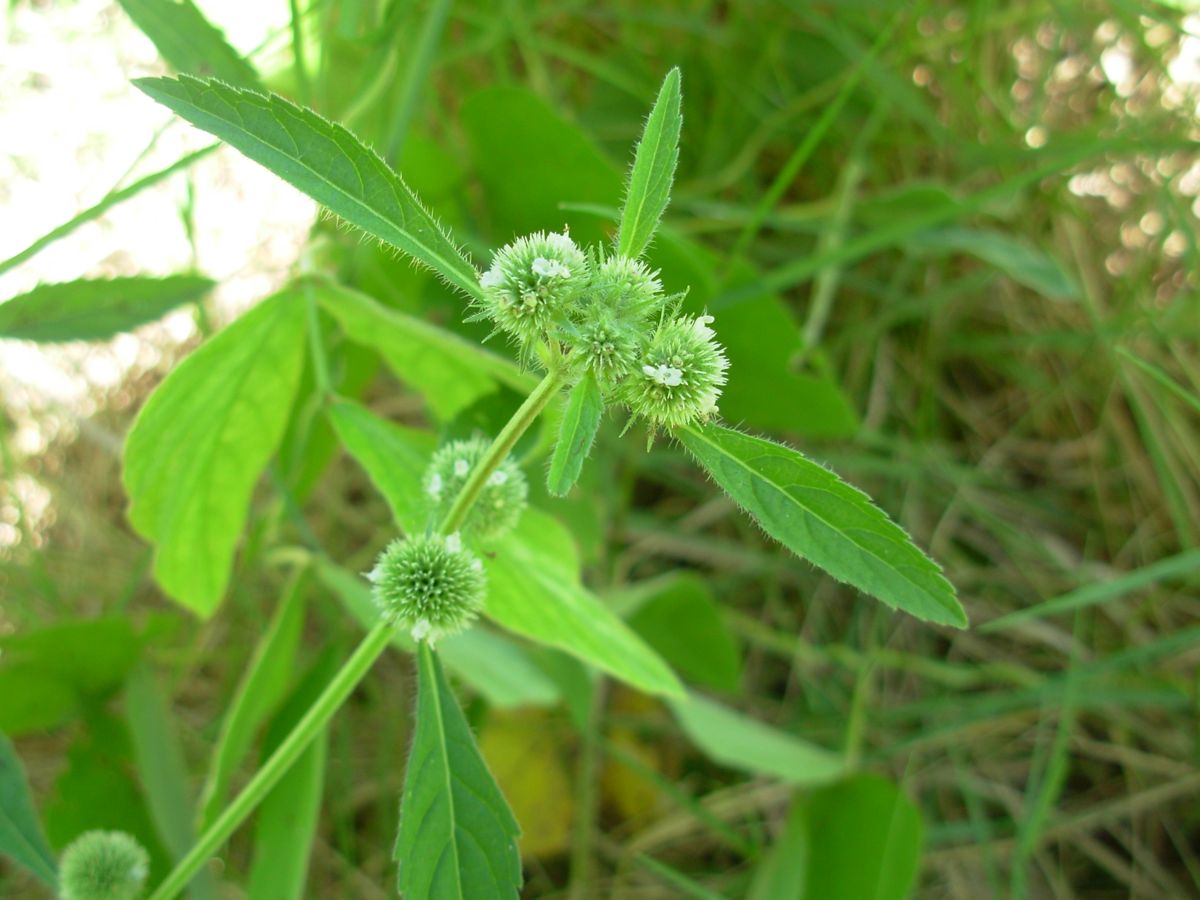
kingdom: Plantae
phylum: Tracheophyta
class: Magnoliopsida
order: Lamiales
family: Lamiaceae
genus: Hyptis
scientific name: Hyptis brevipes
